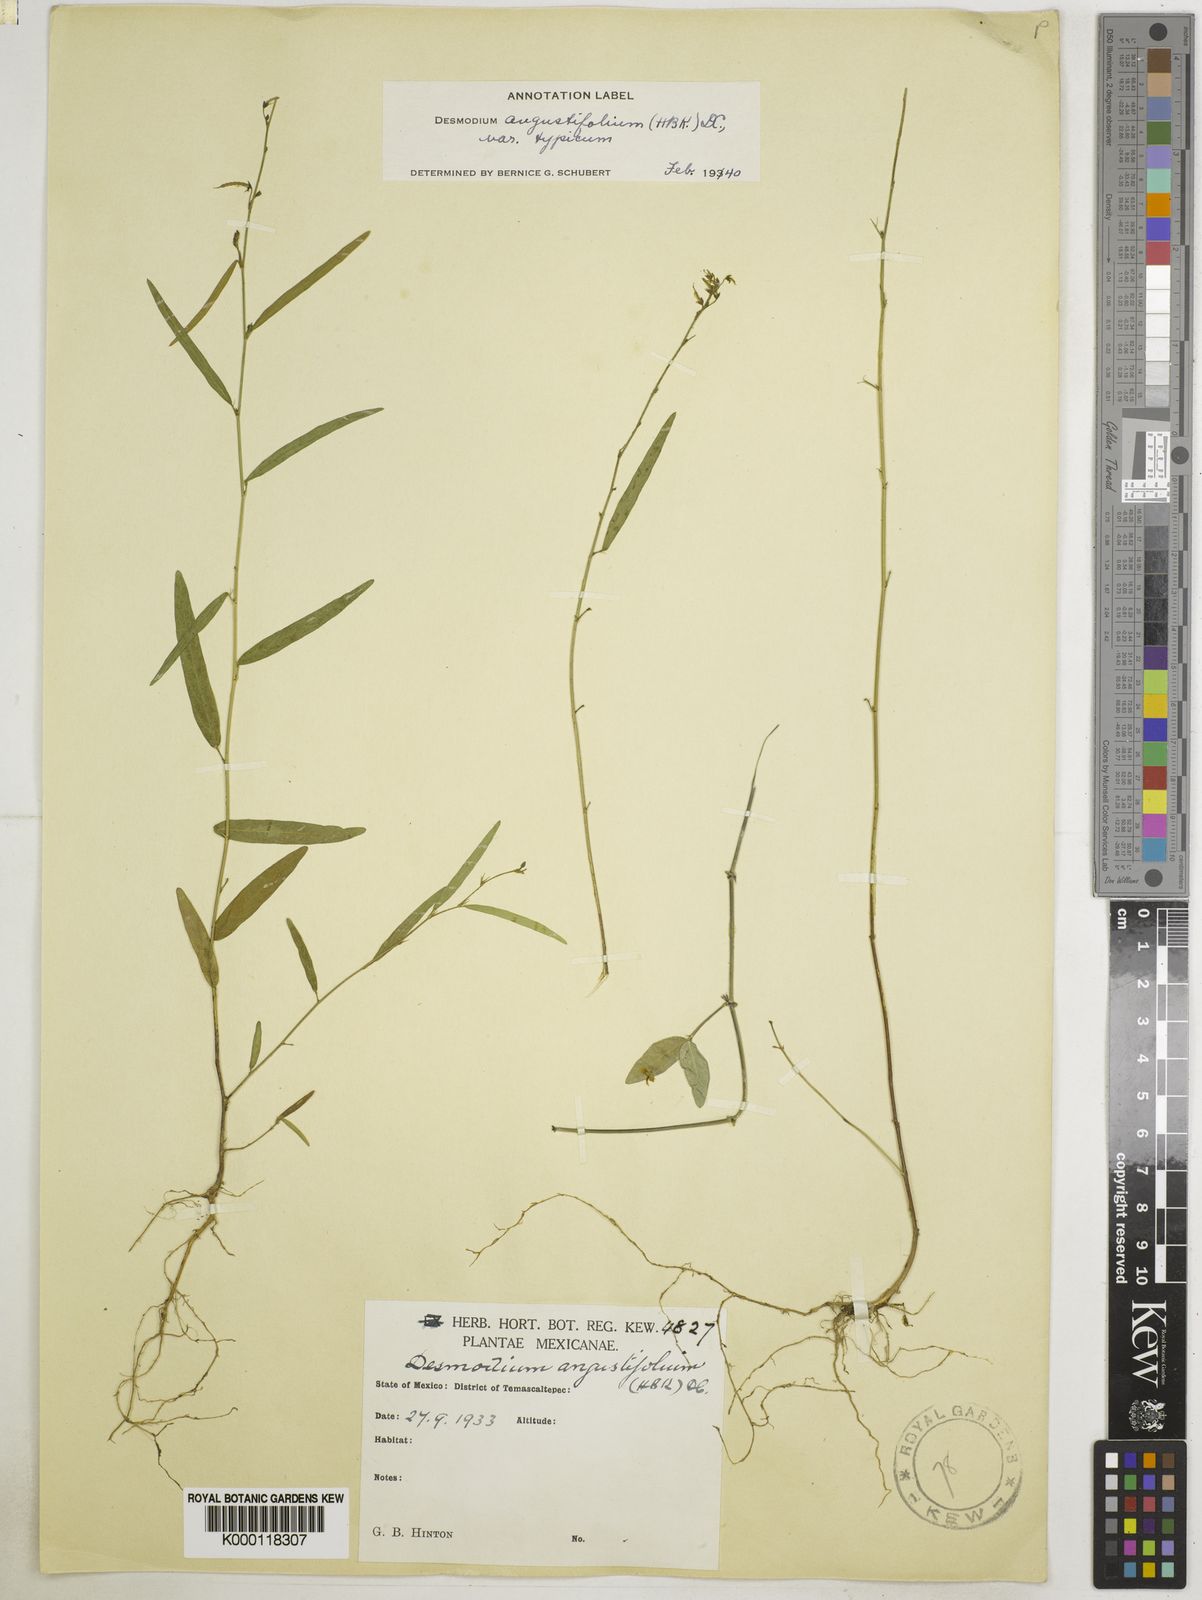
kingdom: Plantae
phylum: Tracheophyta
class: Magnoliopsida
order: Fabales
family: Fabaceae
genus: Desmodium
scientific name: Desmodium angustifolium
